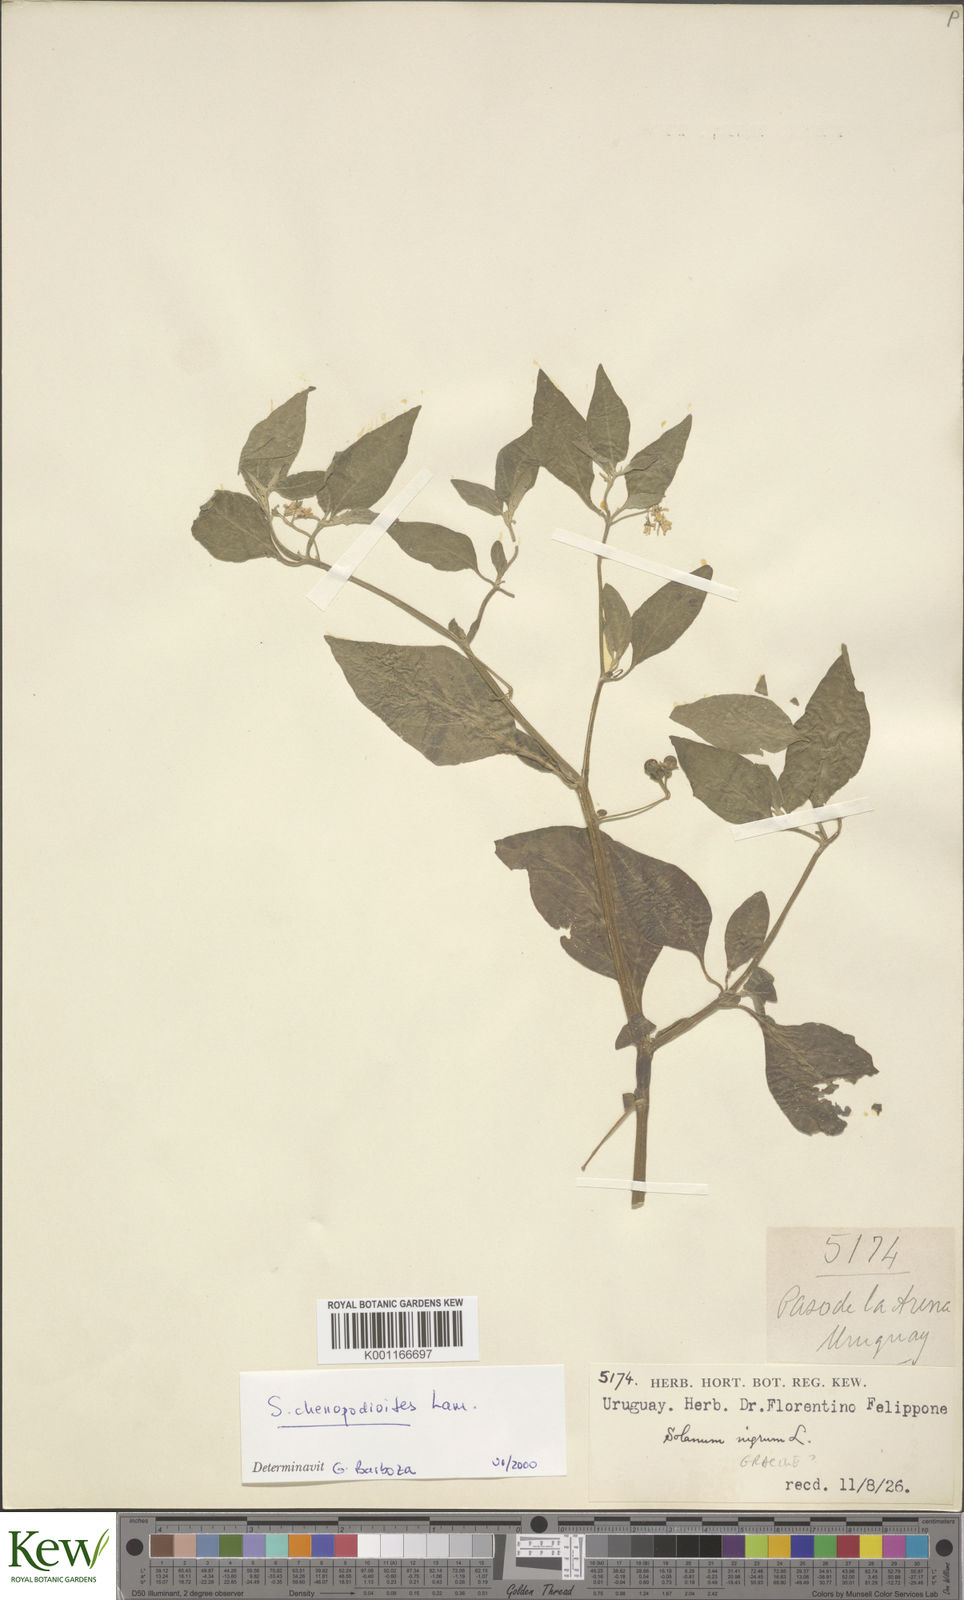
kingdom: Plantae
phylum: Tracheophyta
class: Magnoliopsida
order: Solanales
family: Solanaceae
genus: Solanum
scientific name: Solanum chenopodioides
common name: Tall nightshade
